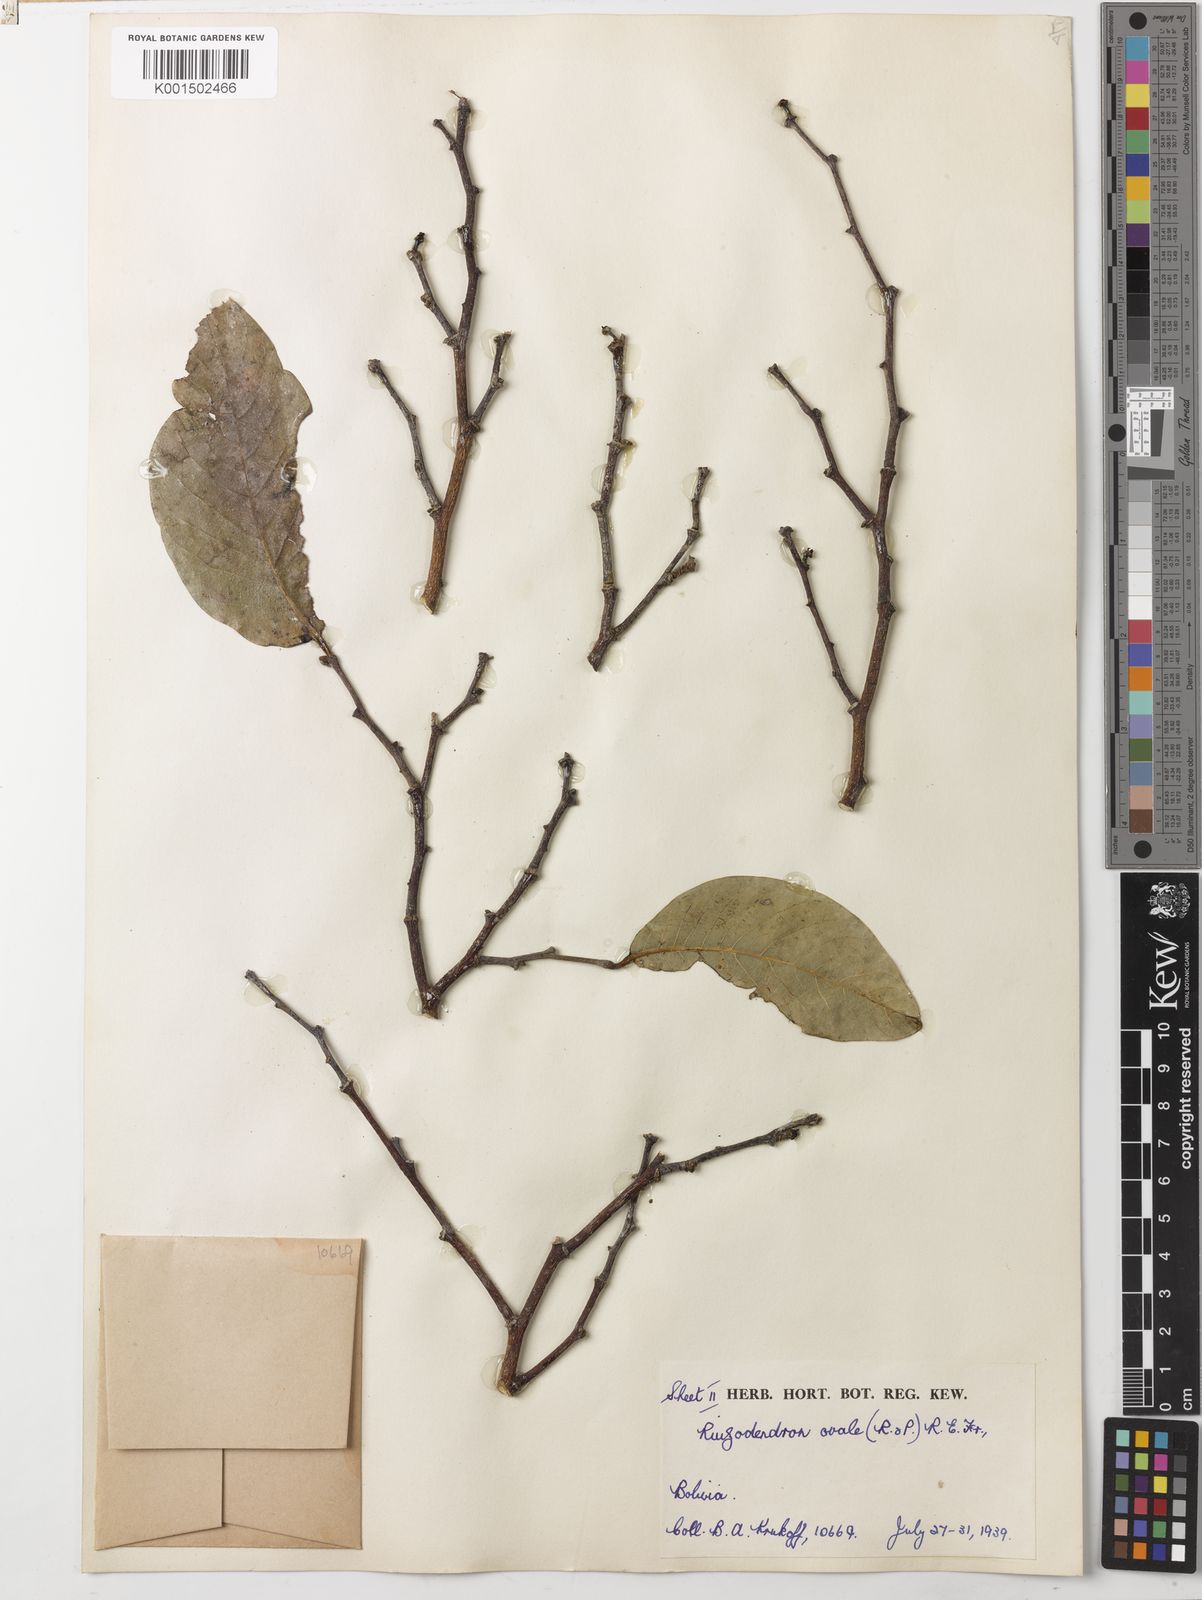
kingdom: Plantae
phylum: Tracheophyta
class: Magnoliopsida
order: Magnoliales
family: Annonaceae
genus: Ruizodendron
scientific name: Ruizodendron ovale
